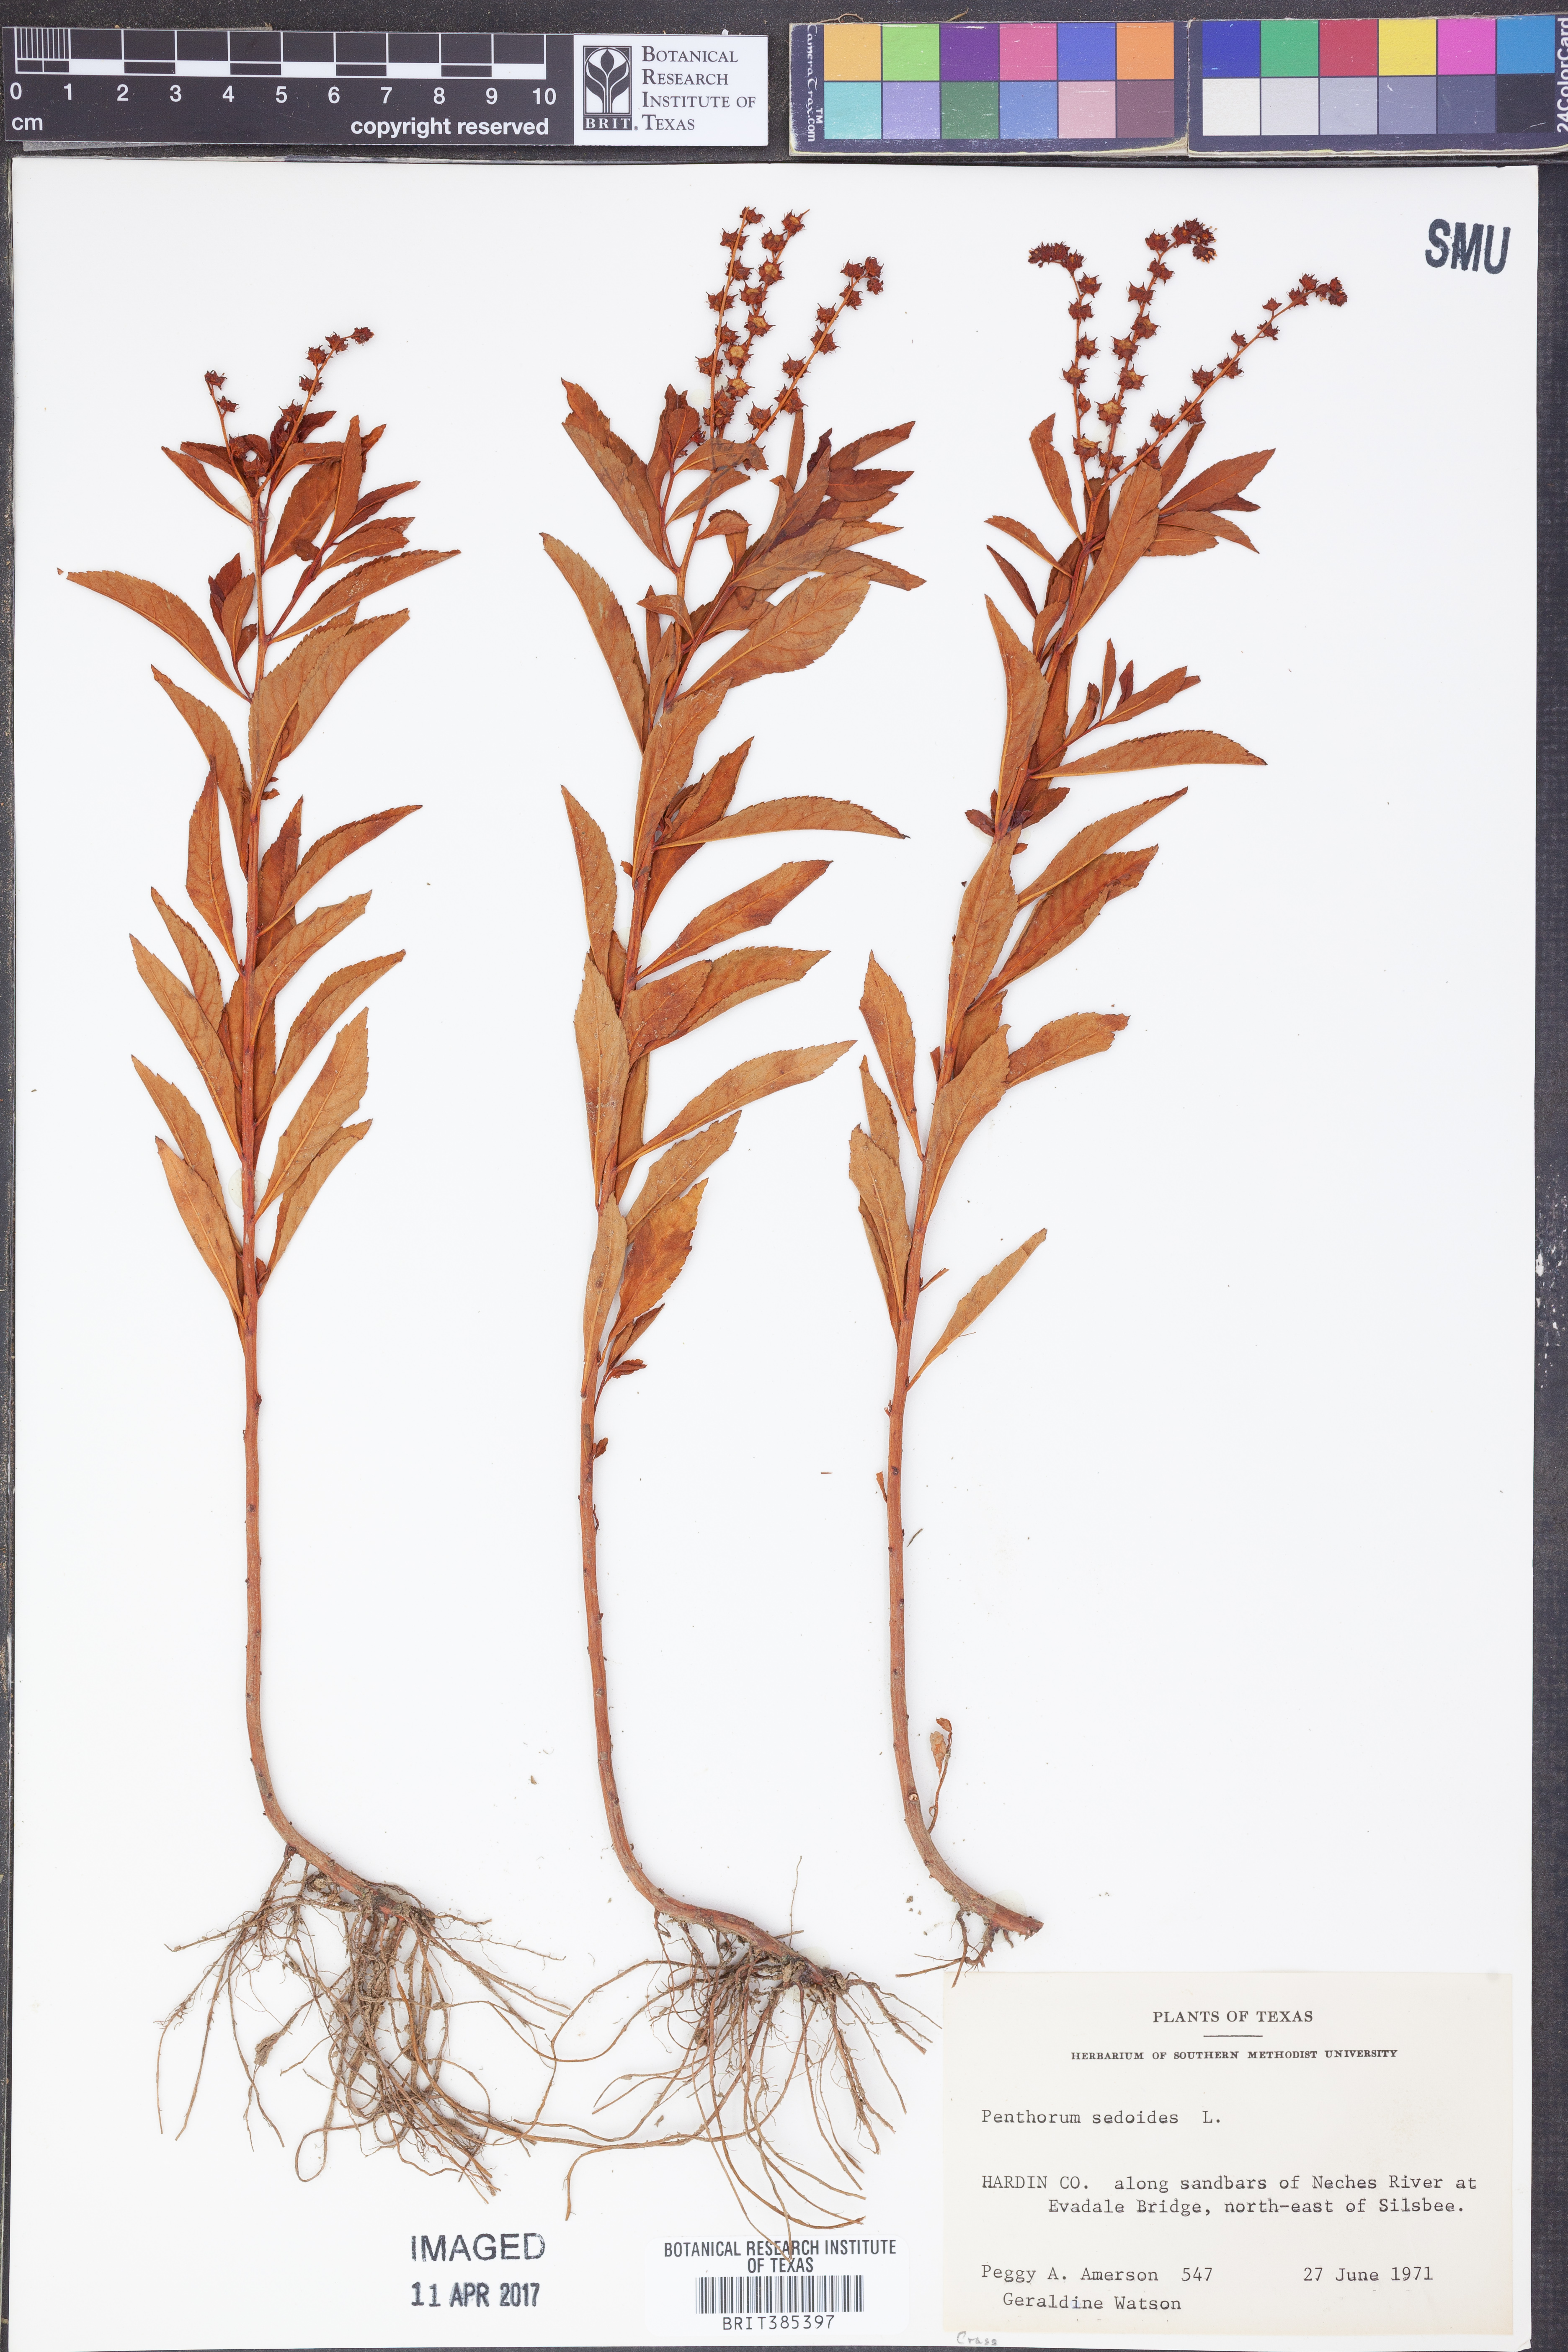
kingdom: Plantae
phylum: Tracheophyta
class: Magnoliopsida
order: Saxifragales
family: Penthoraceae
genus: Penthorum
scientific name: Penthorum sedoides
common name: Ditch stonecrop
